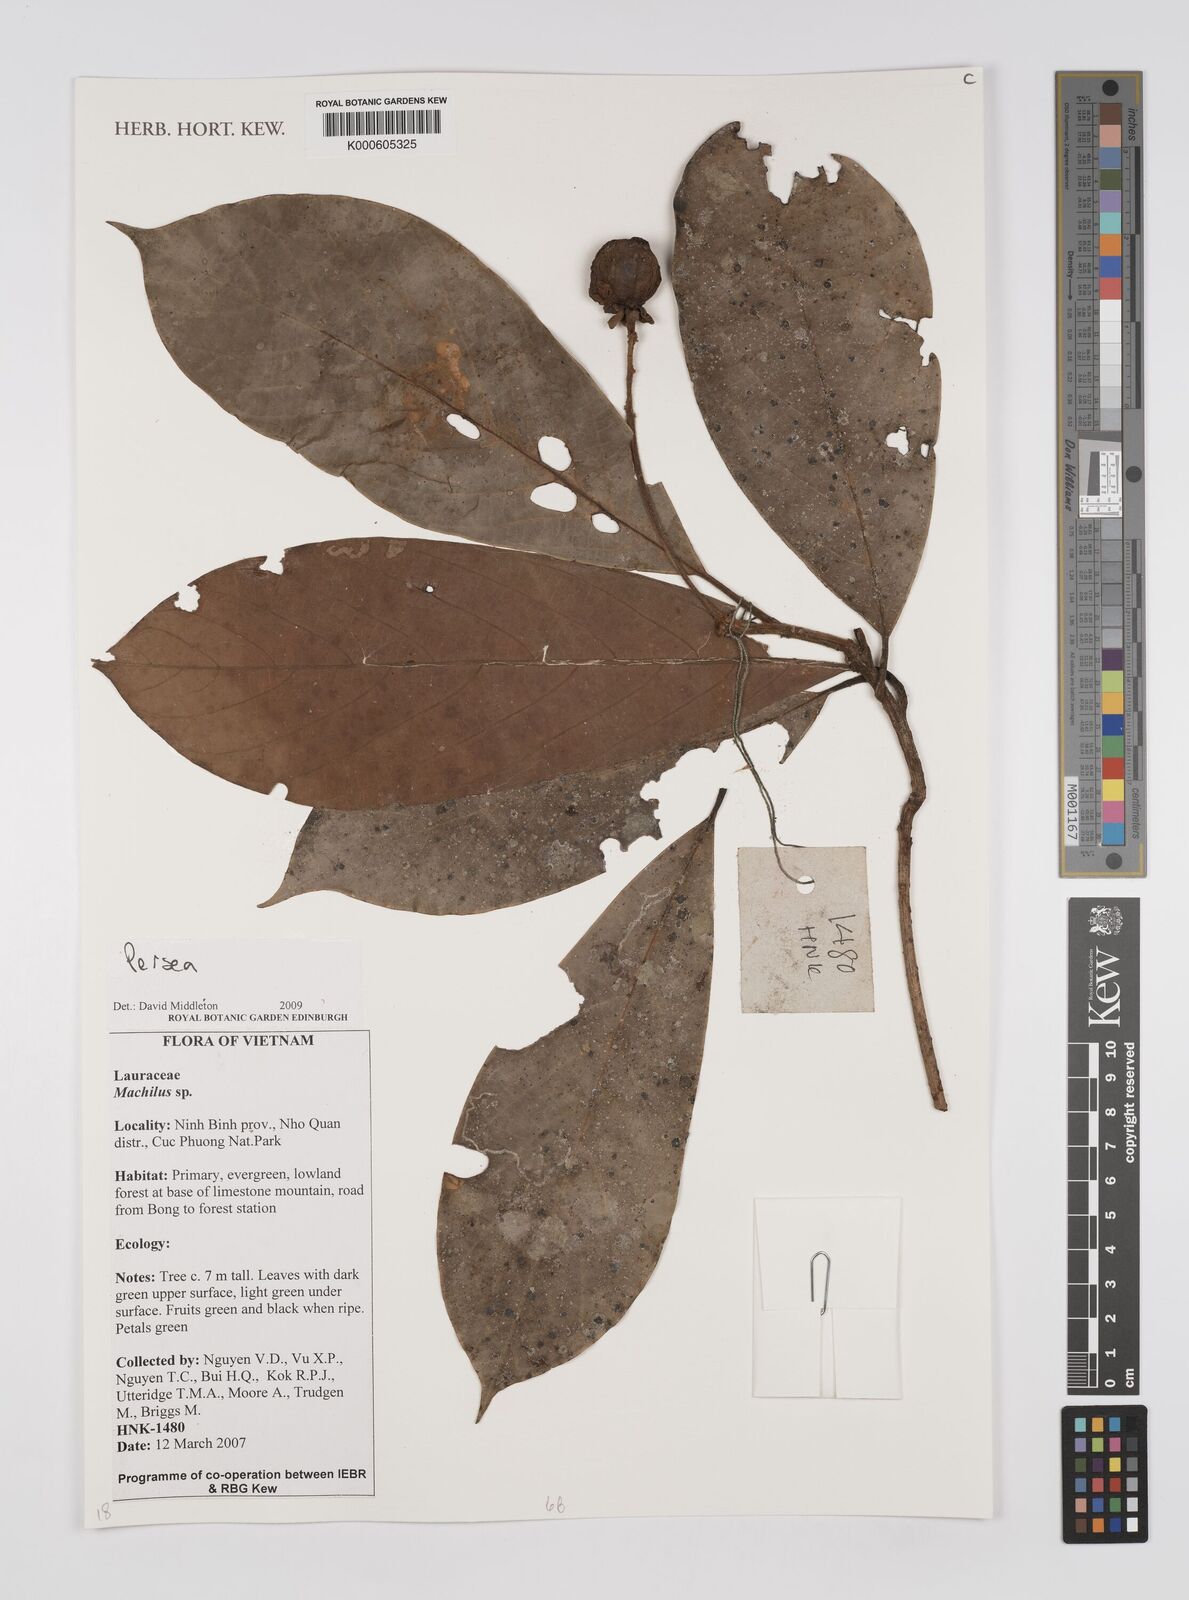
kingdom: Plantae
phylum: Tracheophyta
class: Magnoliopsida
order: Laurales
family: Lauraceae
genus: Persea
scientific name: Persea
